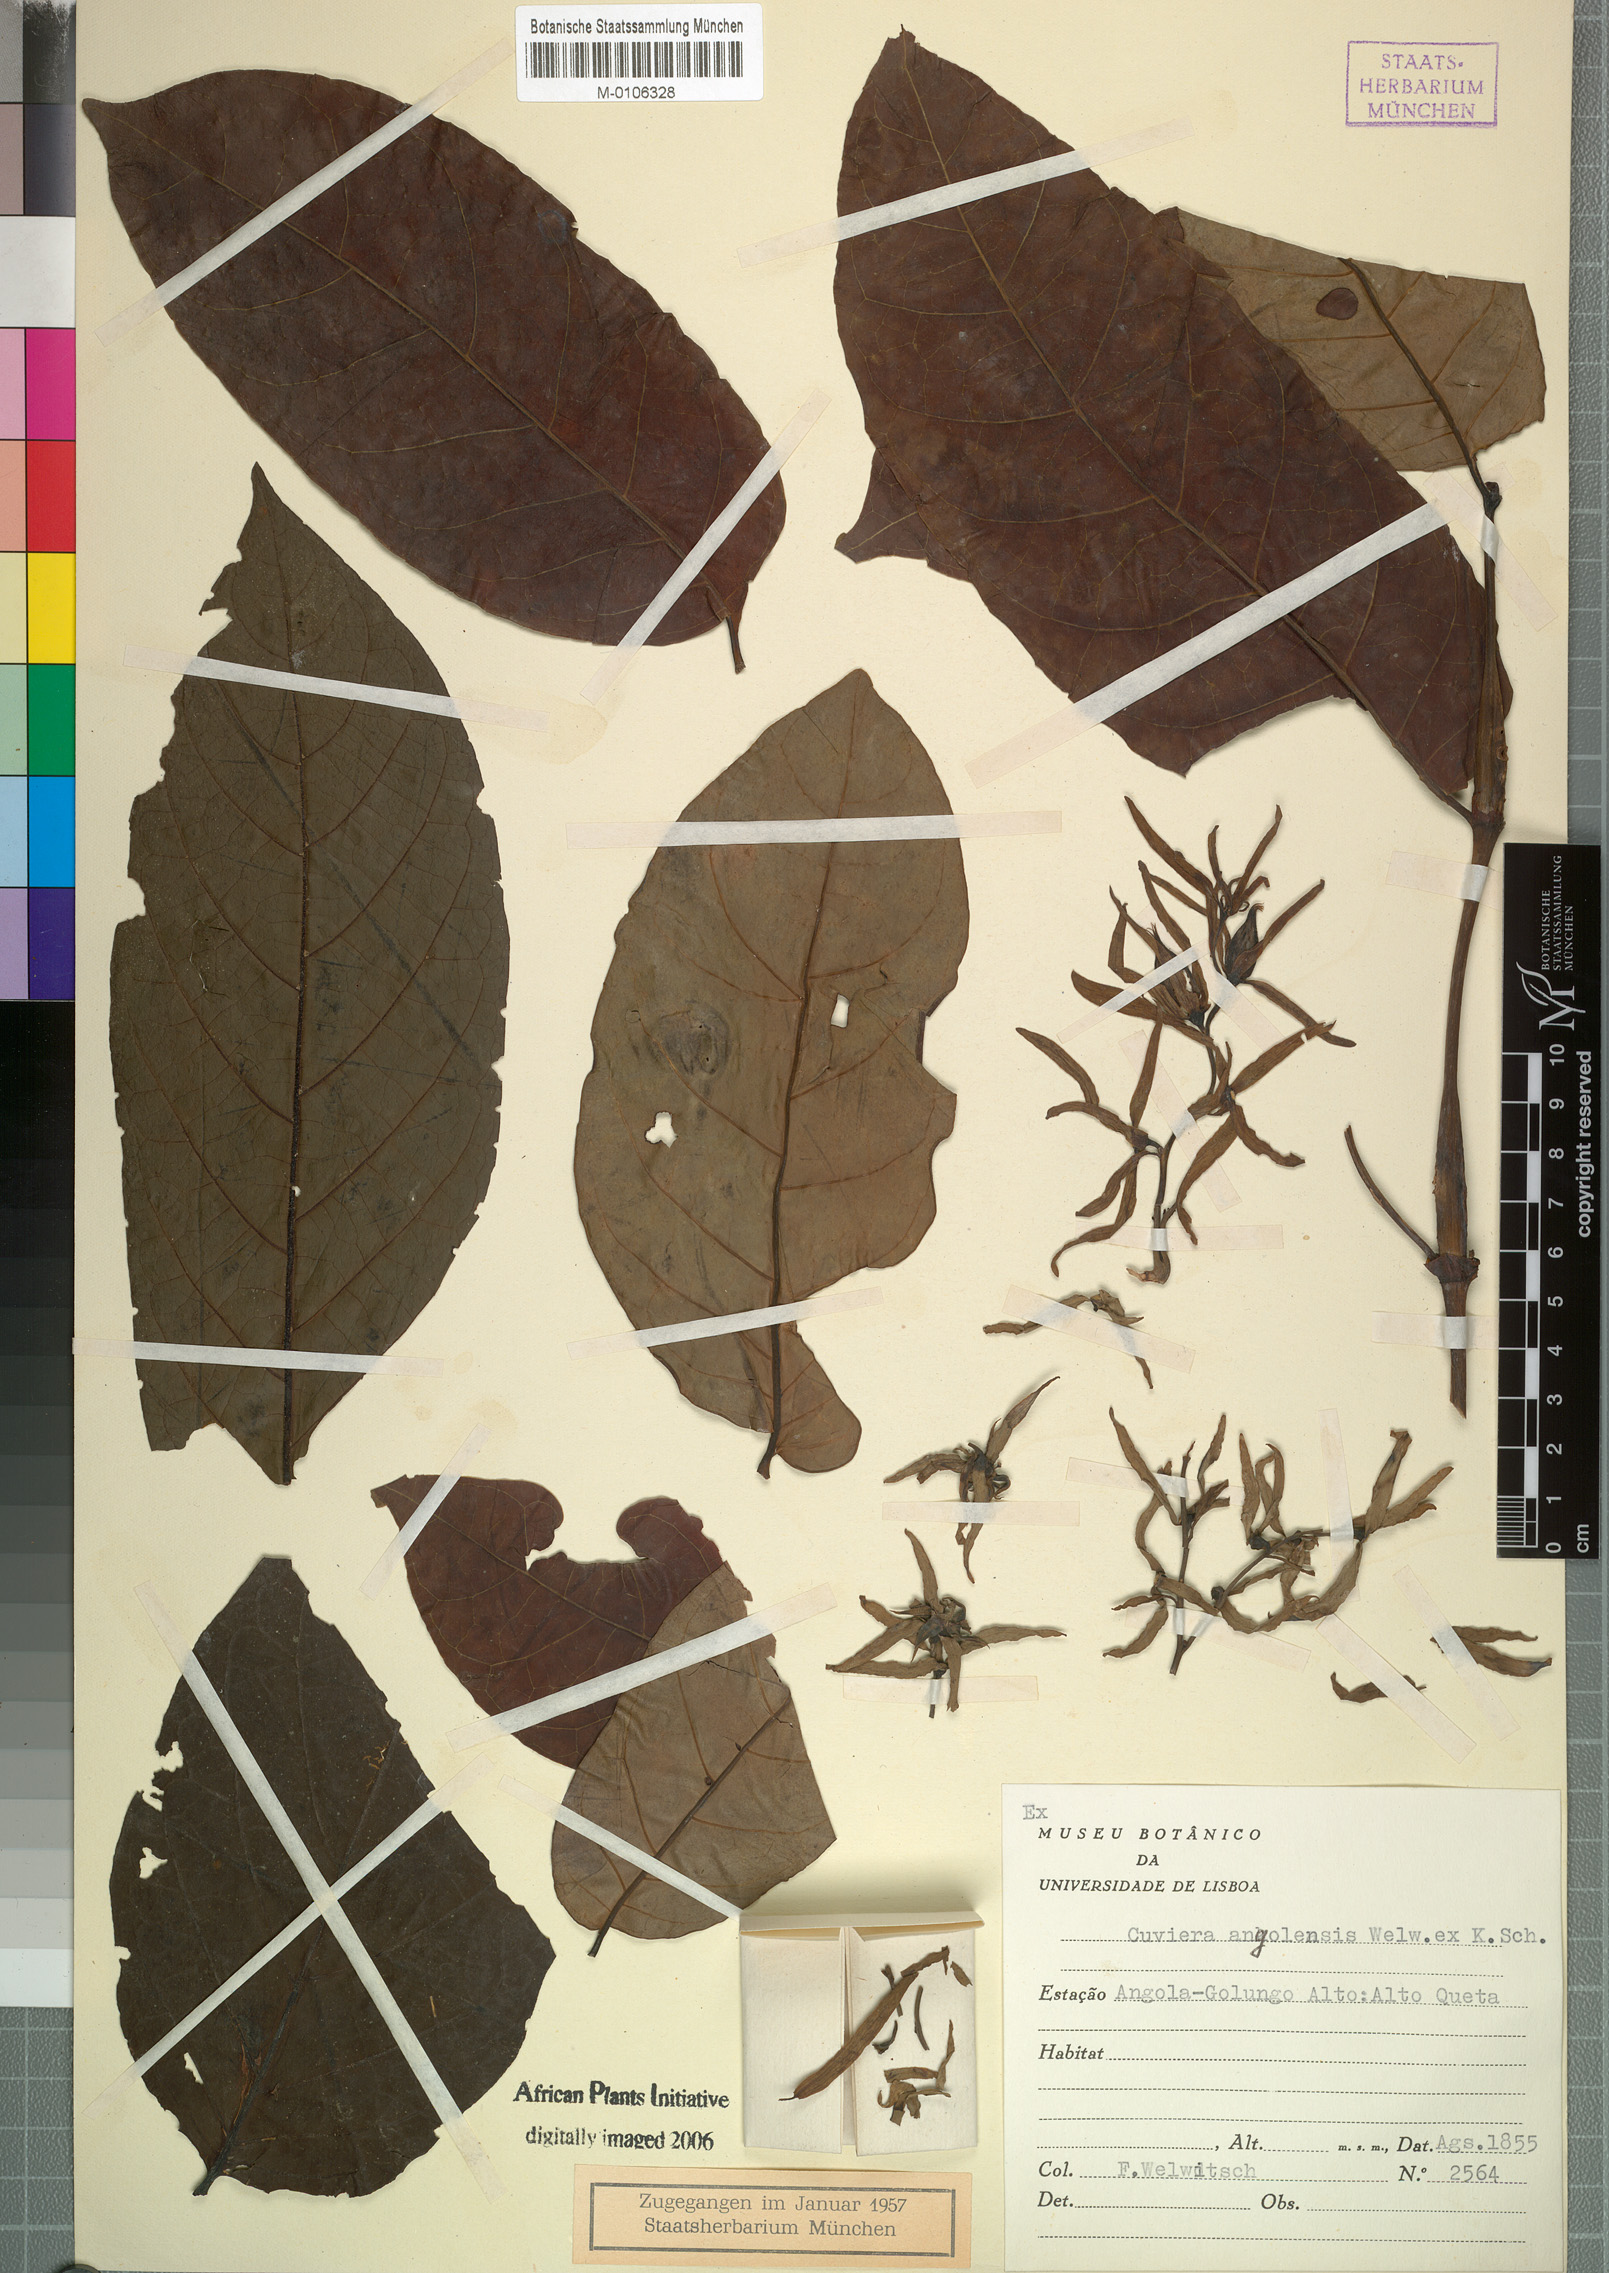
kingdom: Plantae
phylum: Tracheophyta
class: Magnoliopsida
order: Gentianales
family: Rubiaceae
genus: Cuviera
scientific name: Cuviera angolensis
